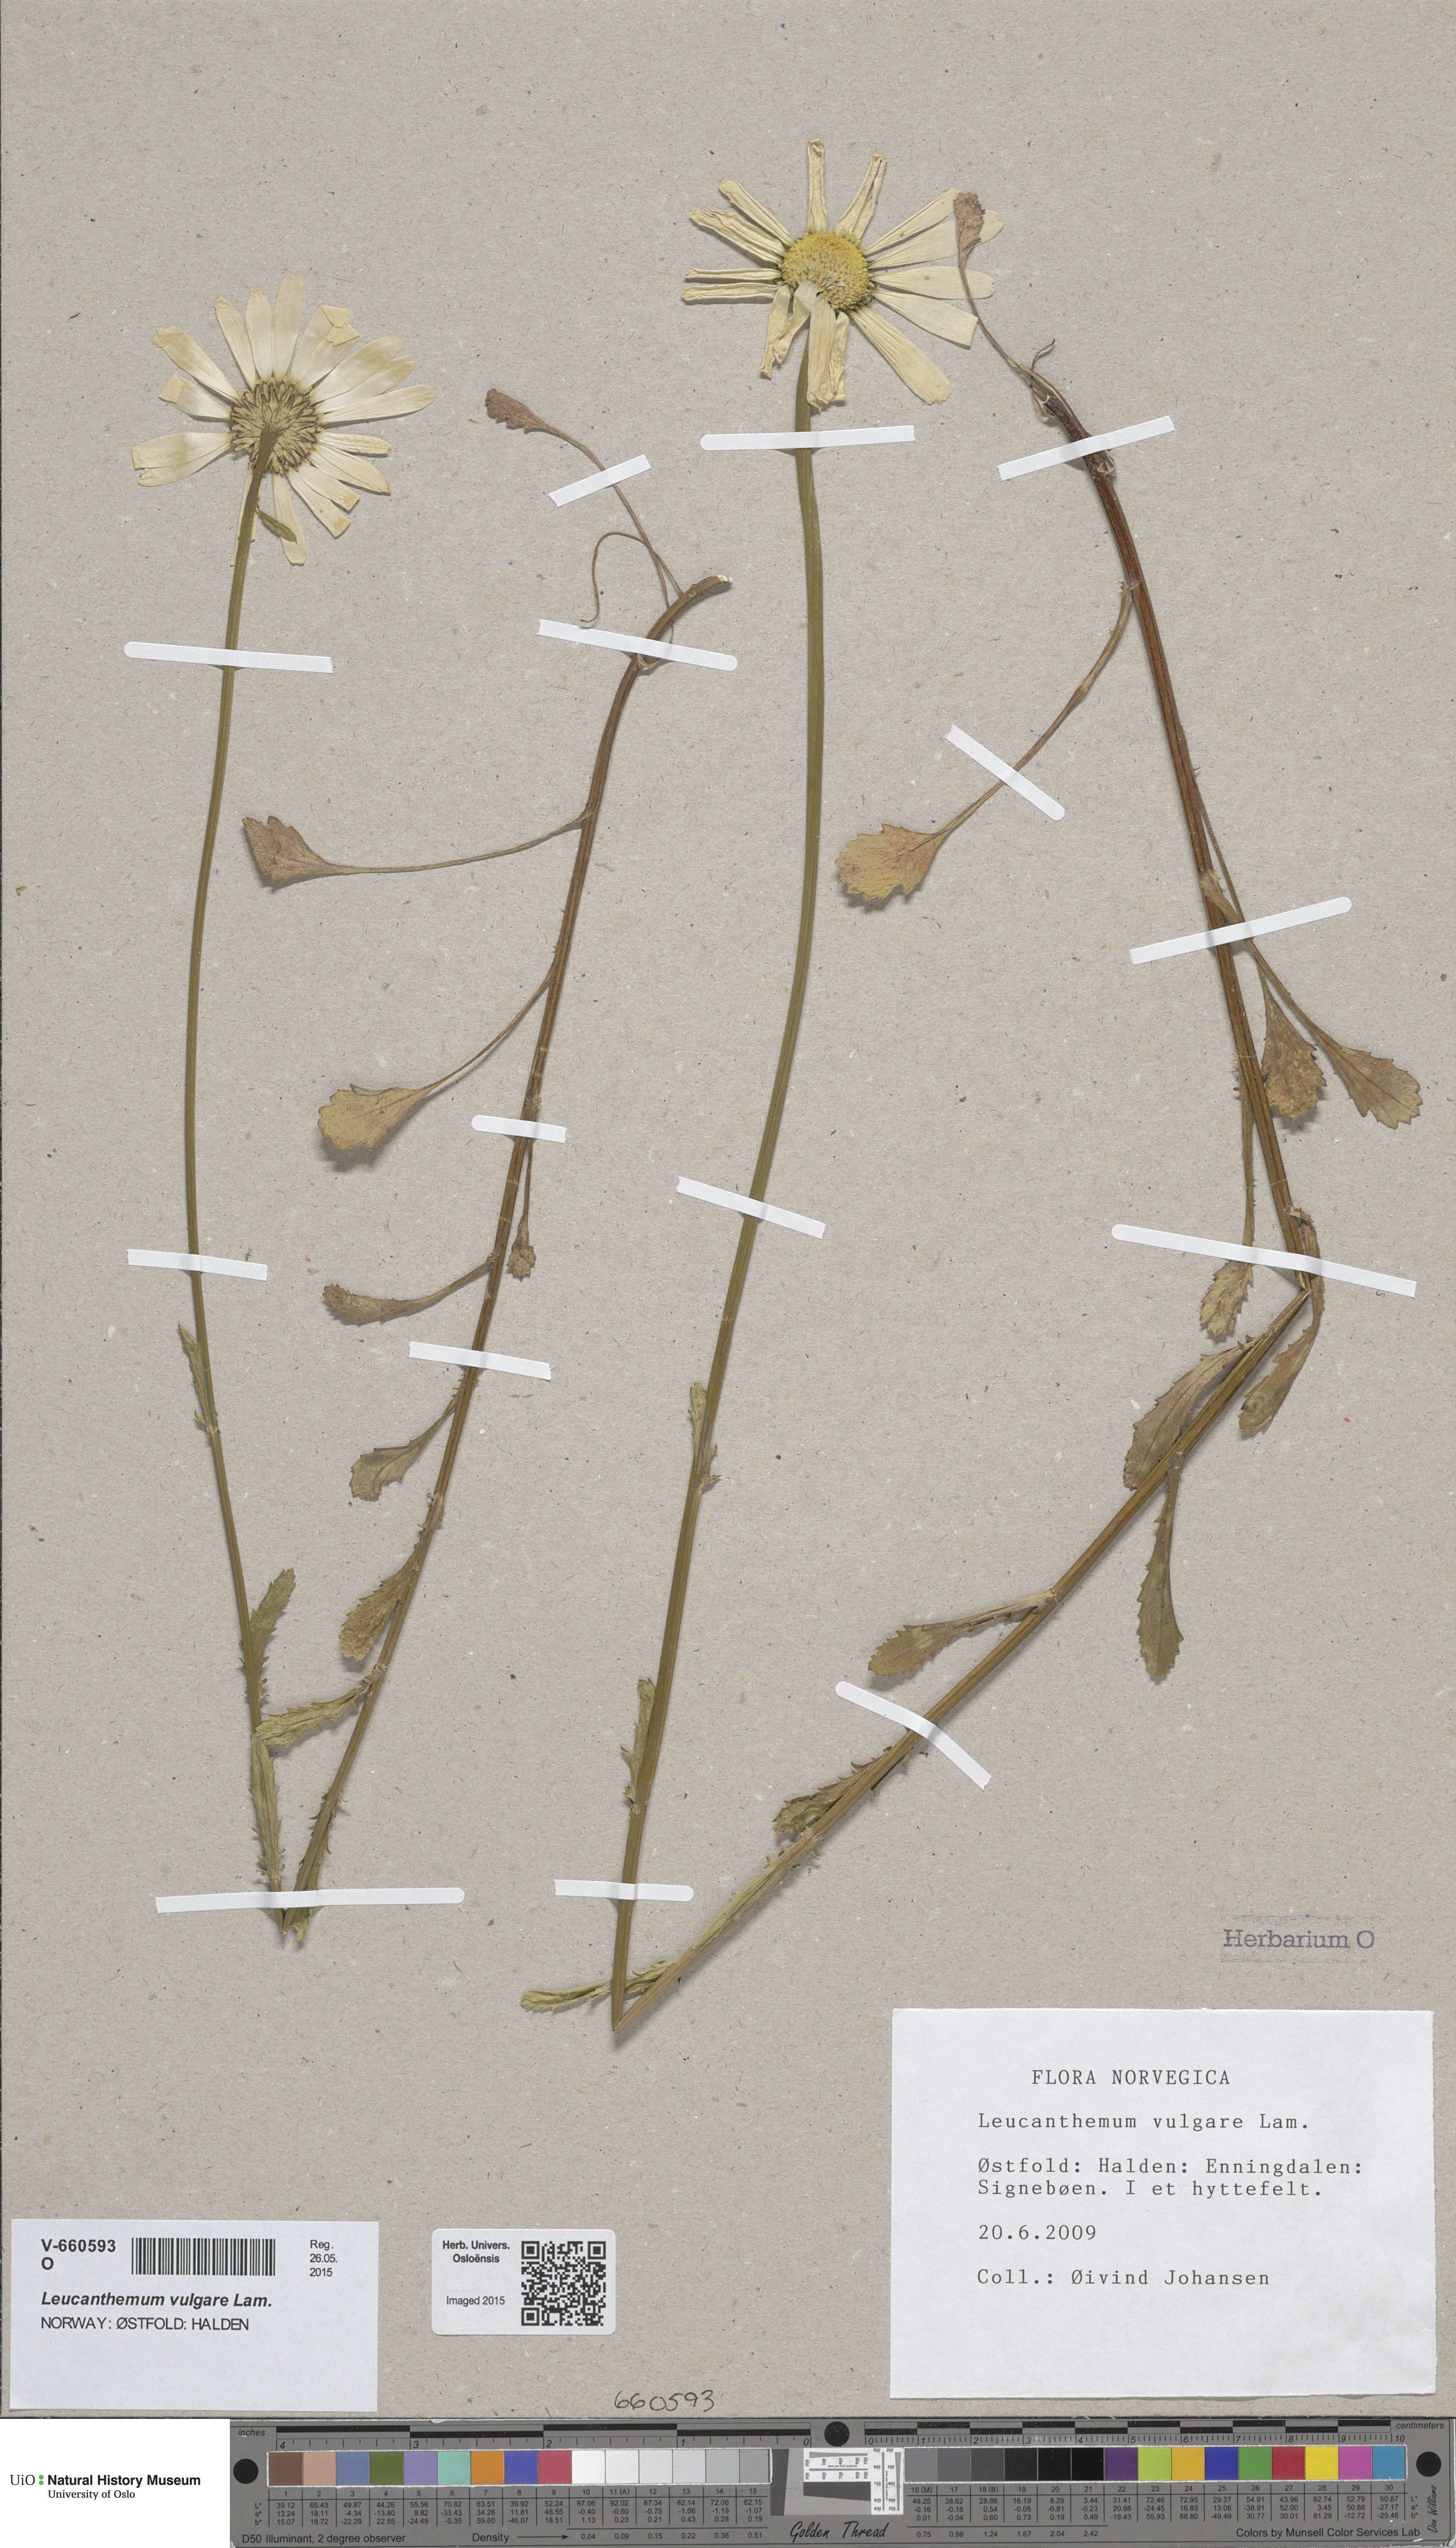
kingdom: Plantae
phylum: Tracheophyta
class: Magnoliopsida
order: Asterales
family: Asteraceae
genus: Leucanthemum
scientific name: Leucanthemum vulgare
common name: Oxeye daisy
